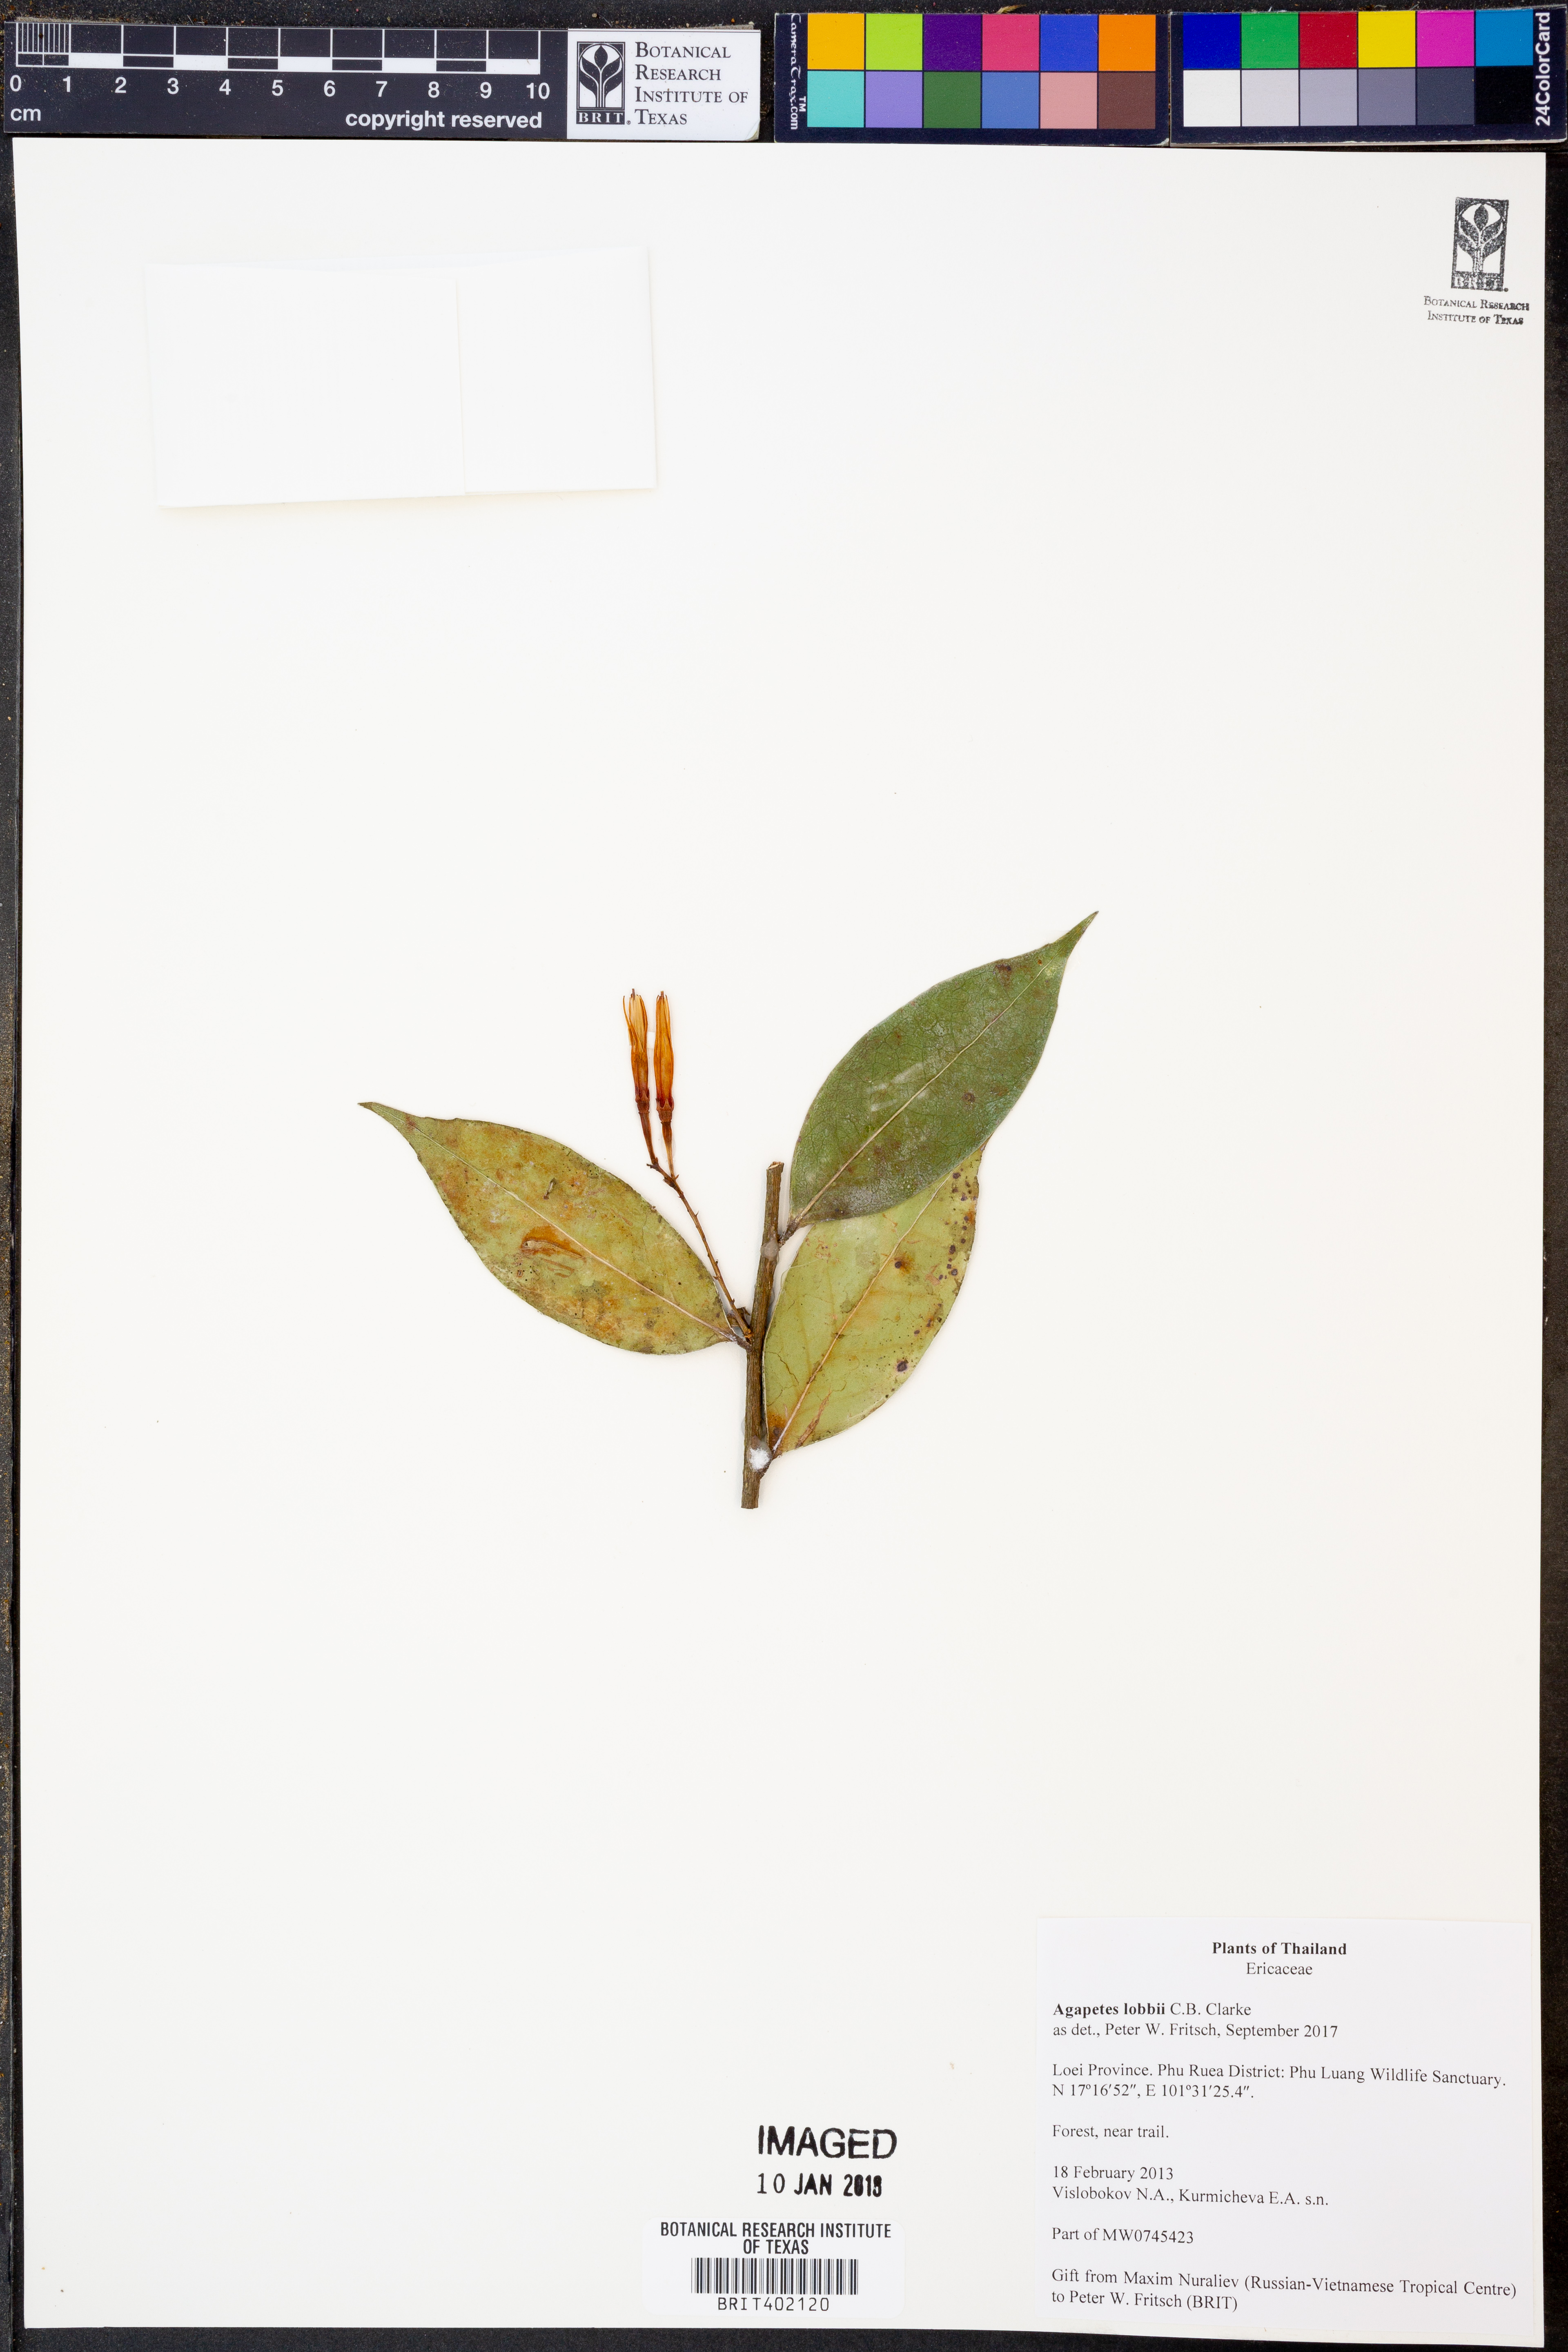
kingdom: Plantae
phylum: Tracheophyta
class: Magnoliopsida
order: Ericales
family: Ericaceae
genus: Agapetes
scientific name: Agapetes lobbii
